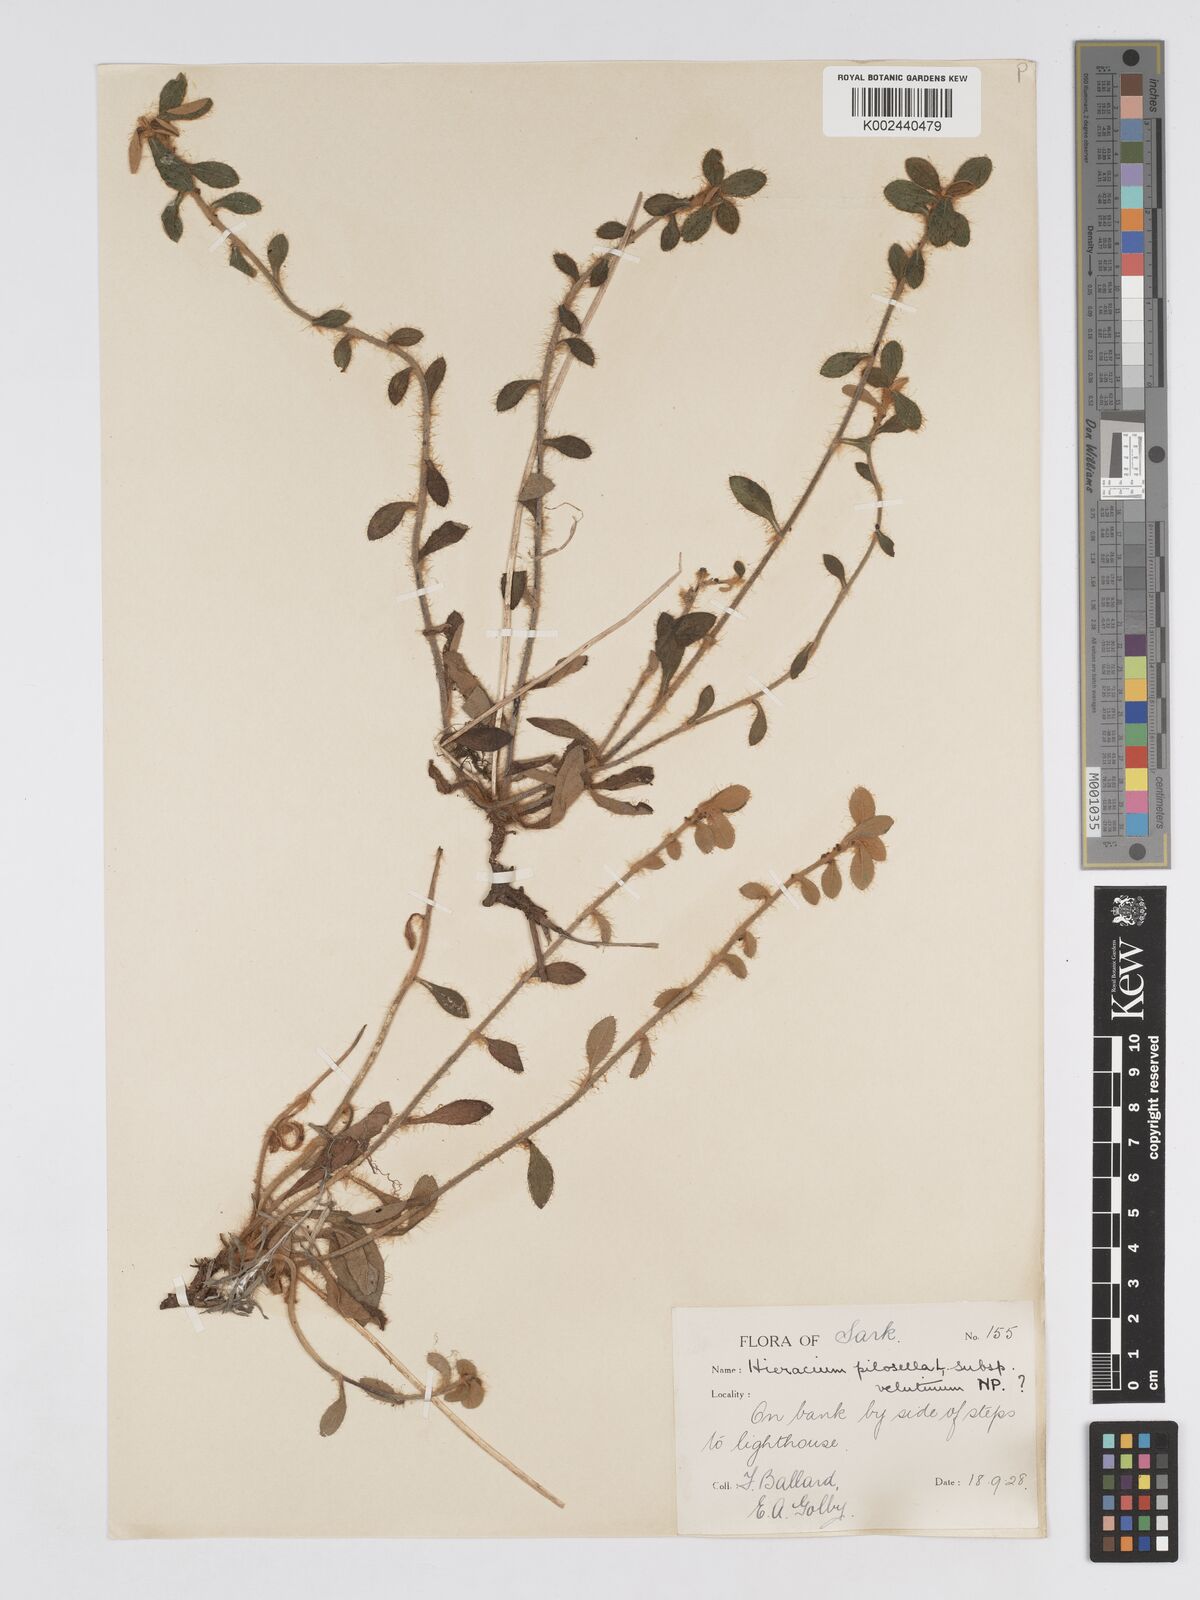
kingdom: Plantae
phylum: Tracheophyta
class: Magnoliopsida
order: Asterales
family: Asteraceae
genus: Pilosella
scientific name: Pilosella velutina
